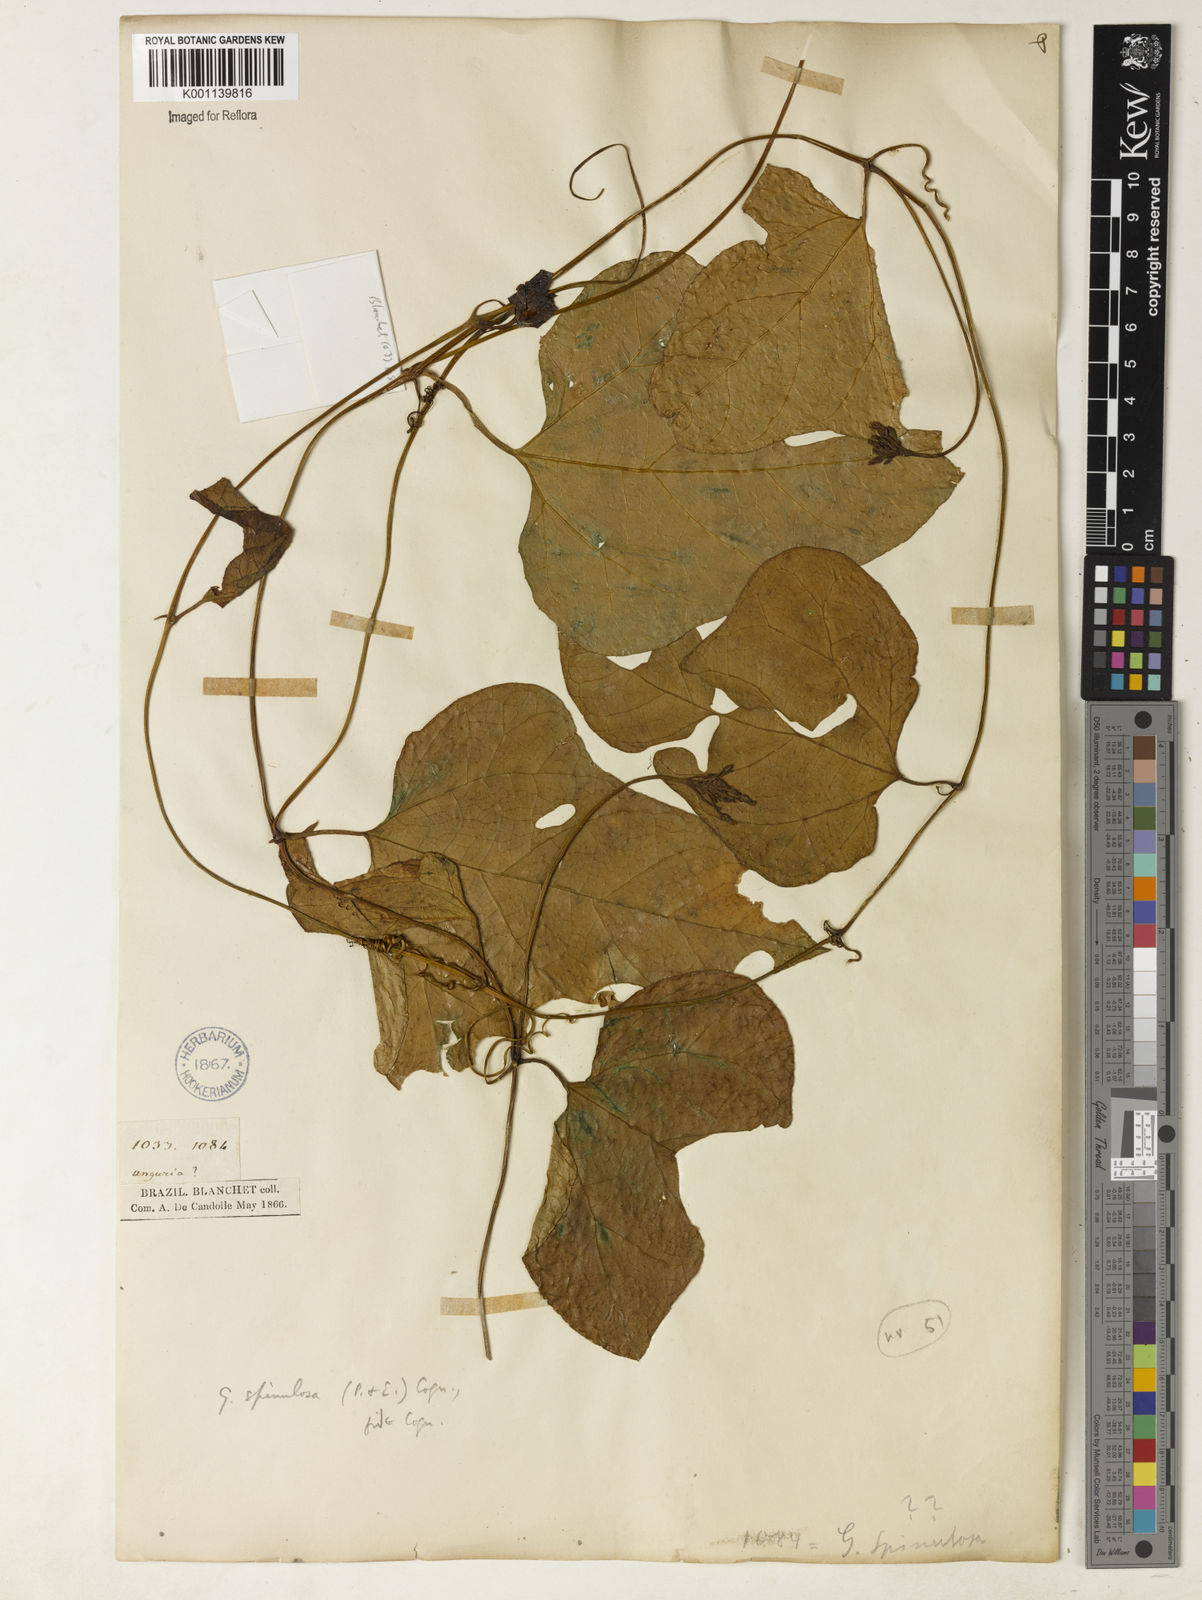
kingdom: Plantae
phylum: Tracheophyta
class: Magnoliopsida
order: Cucurbitales
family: Cucurbitaceae
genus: Gurania
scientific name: Gurania acuminata
